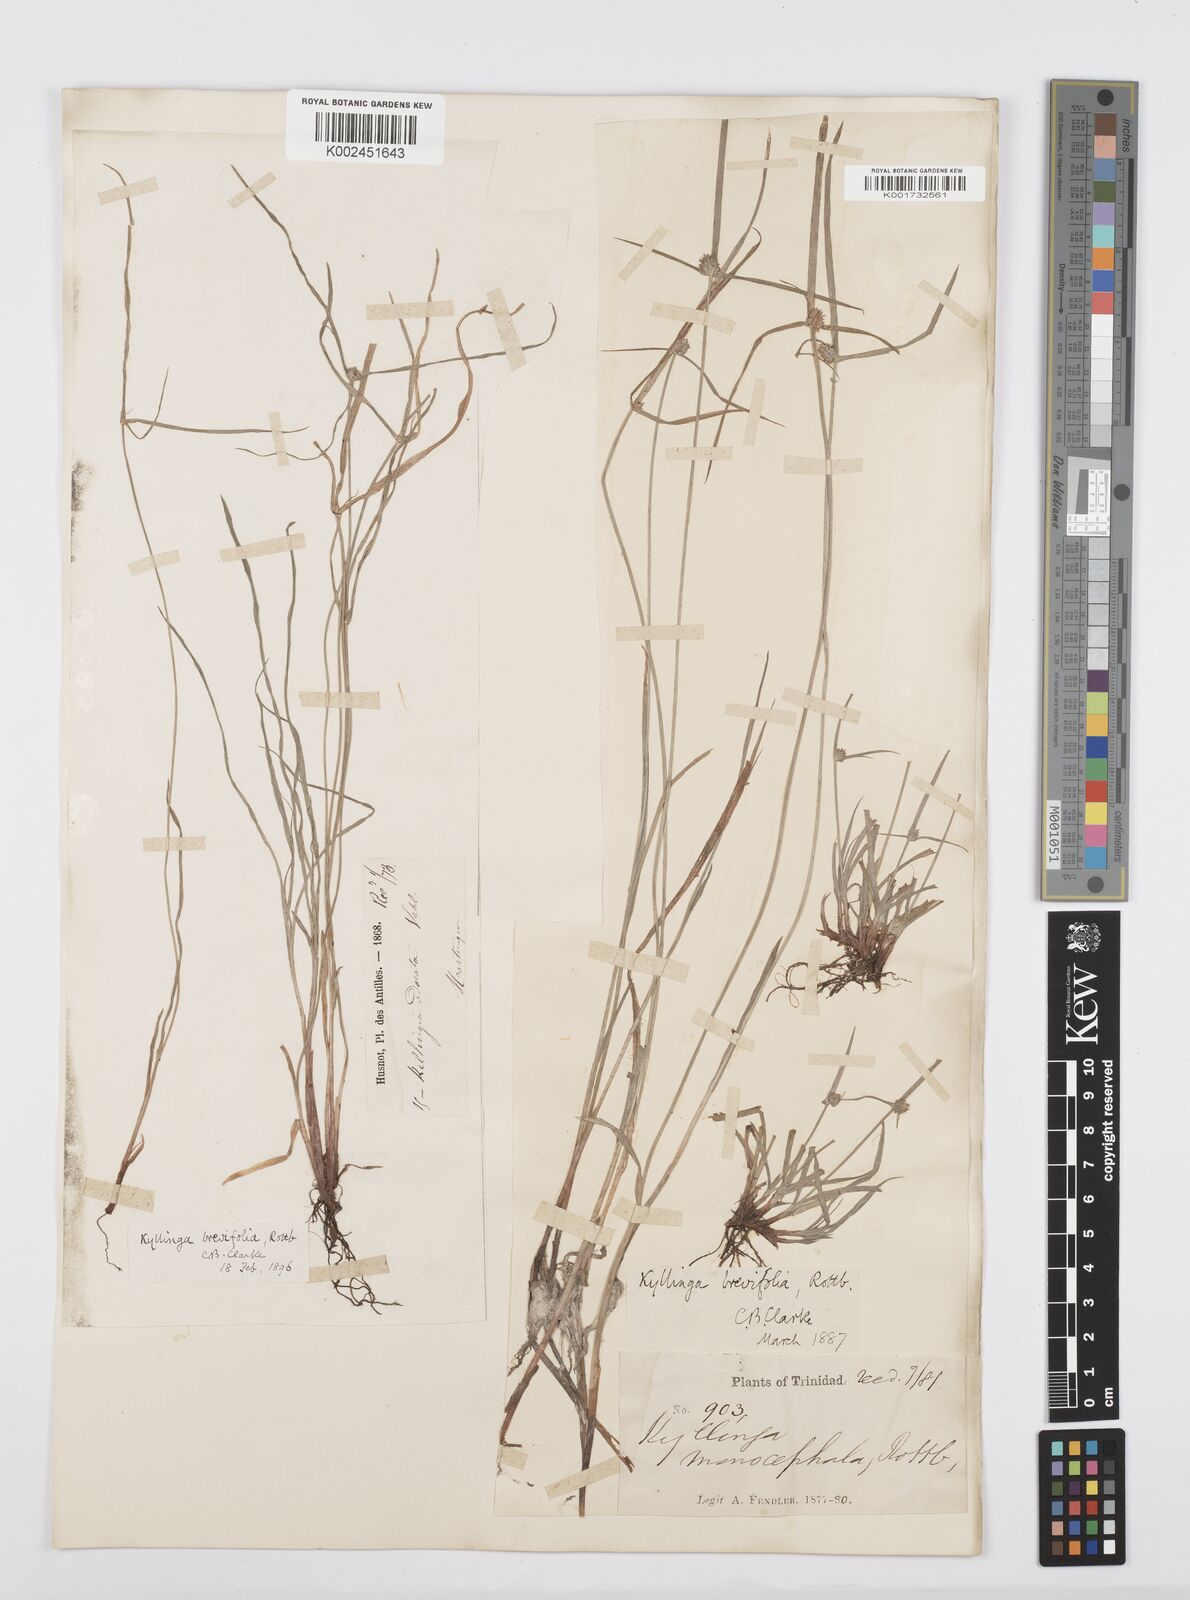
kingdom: Plantae
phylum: Tracheophyta
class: Liliopsida
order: Poales
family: Cyperaceae
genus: Cyperus
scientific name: Cyperus brevifolius
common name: Globe kyllinga
